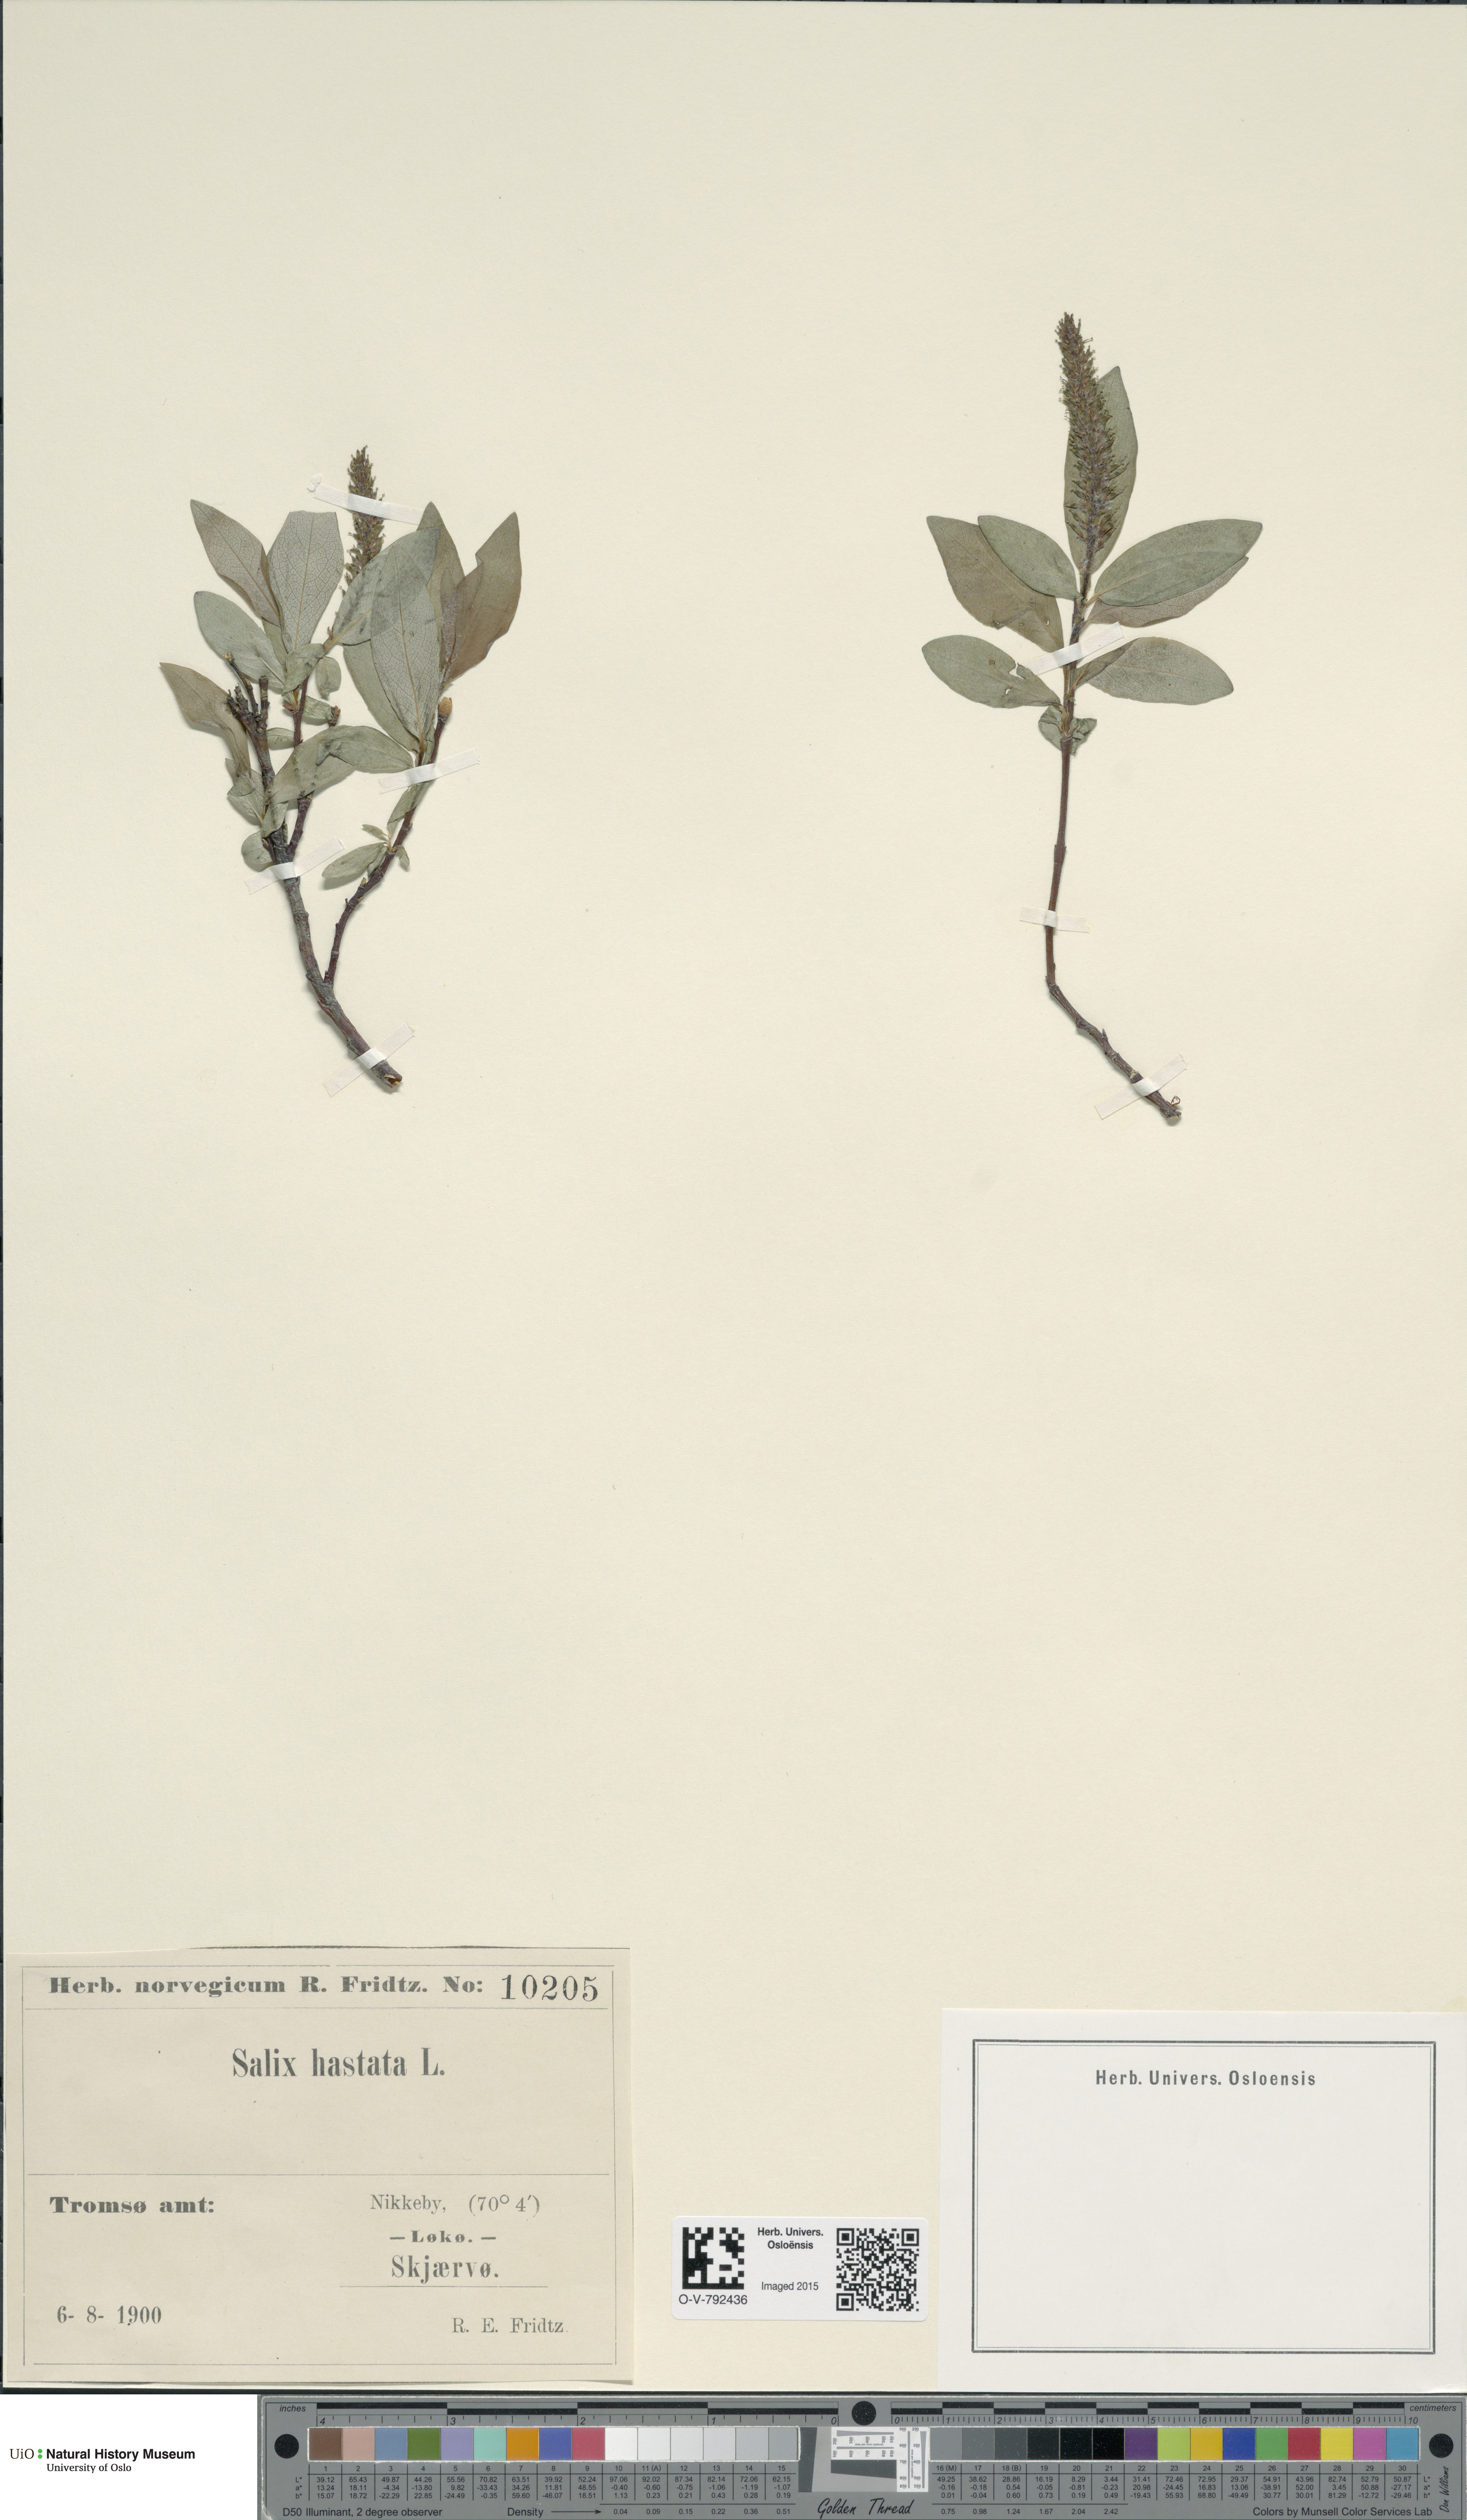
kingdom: Plantae
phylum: Tracheophyta
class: Magnoliopsida
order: Malpighiales
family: Salicaceae
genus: Salix
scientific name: Salix hastata
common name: Halberd willow
